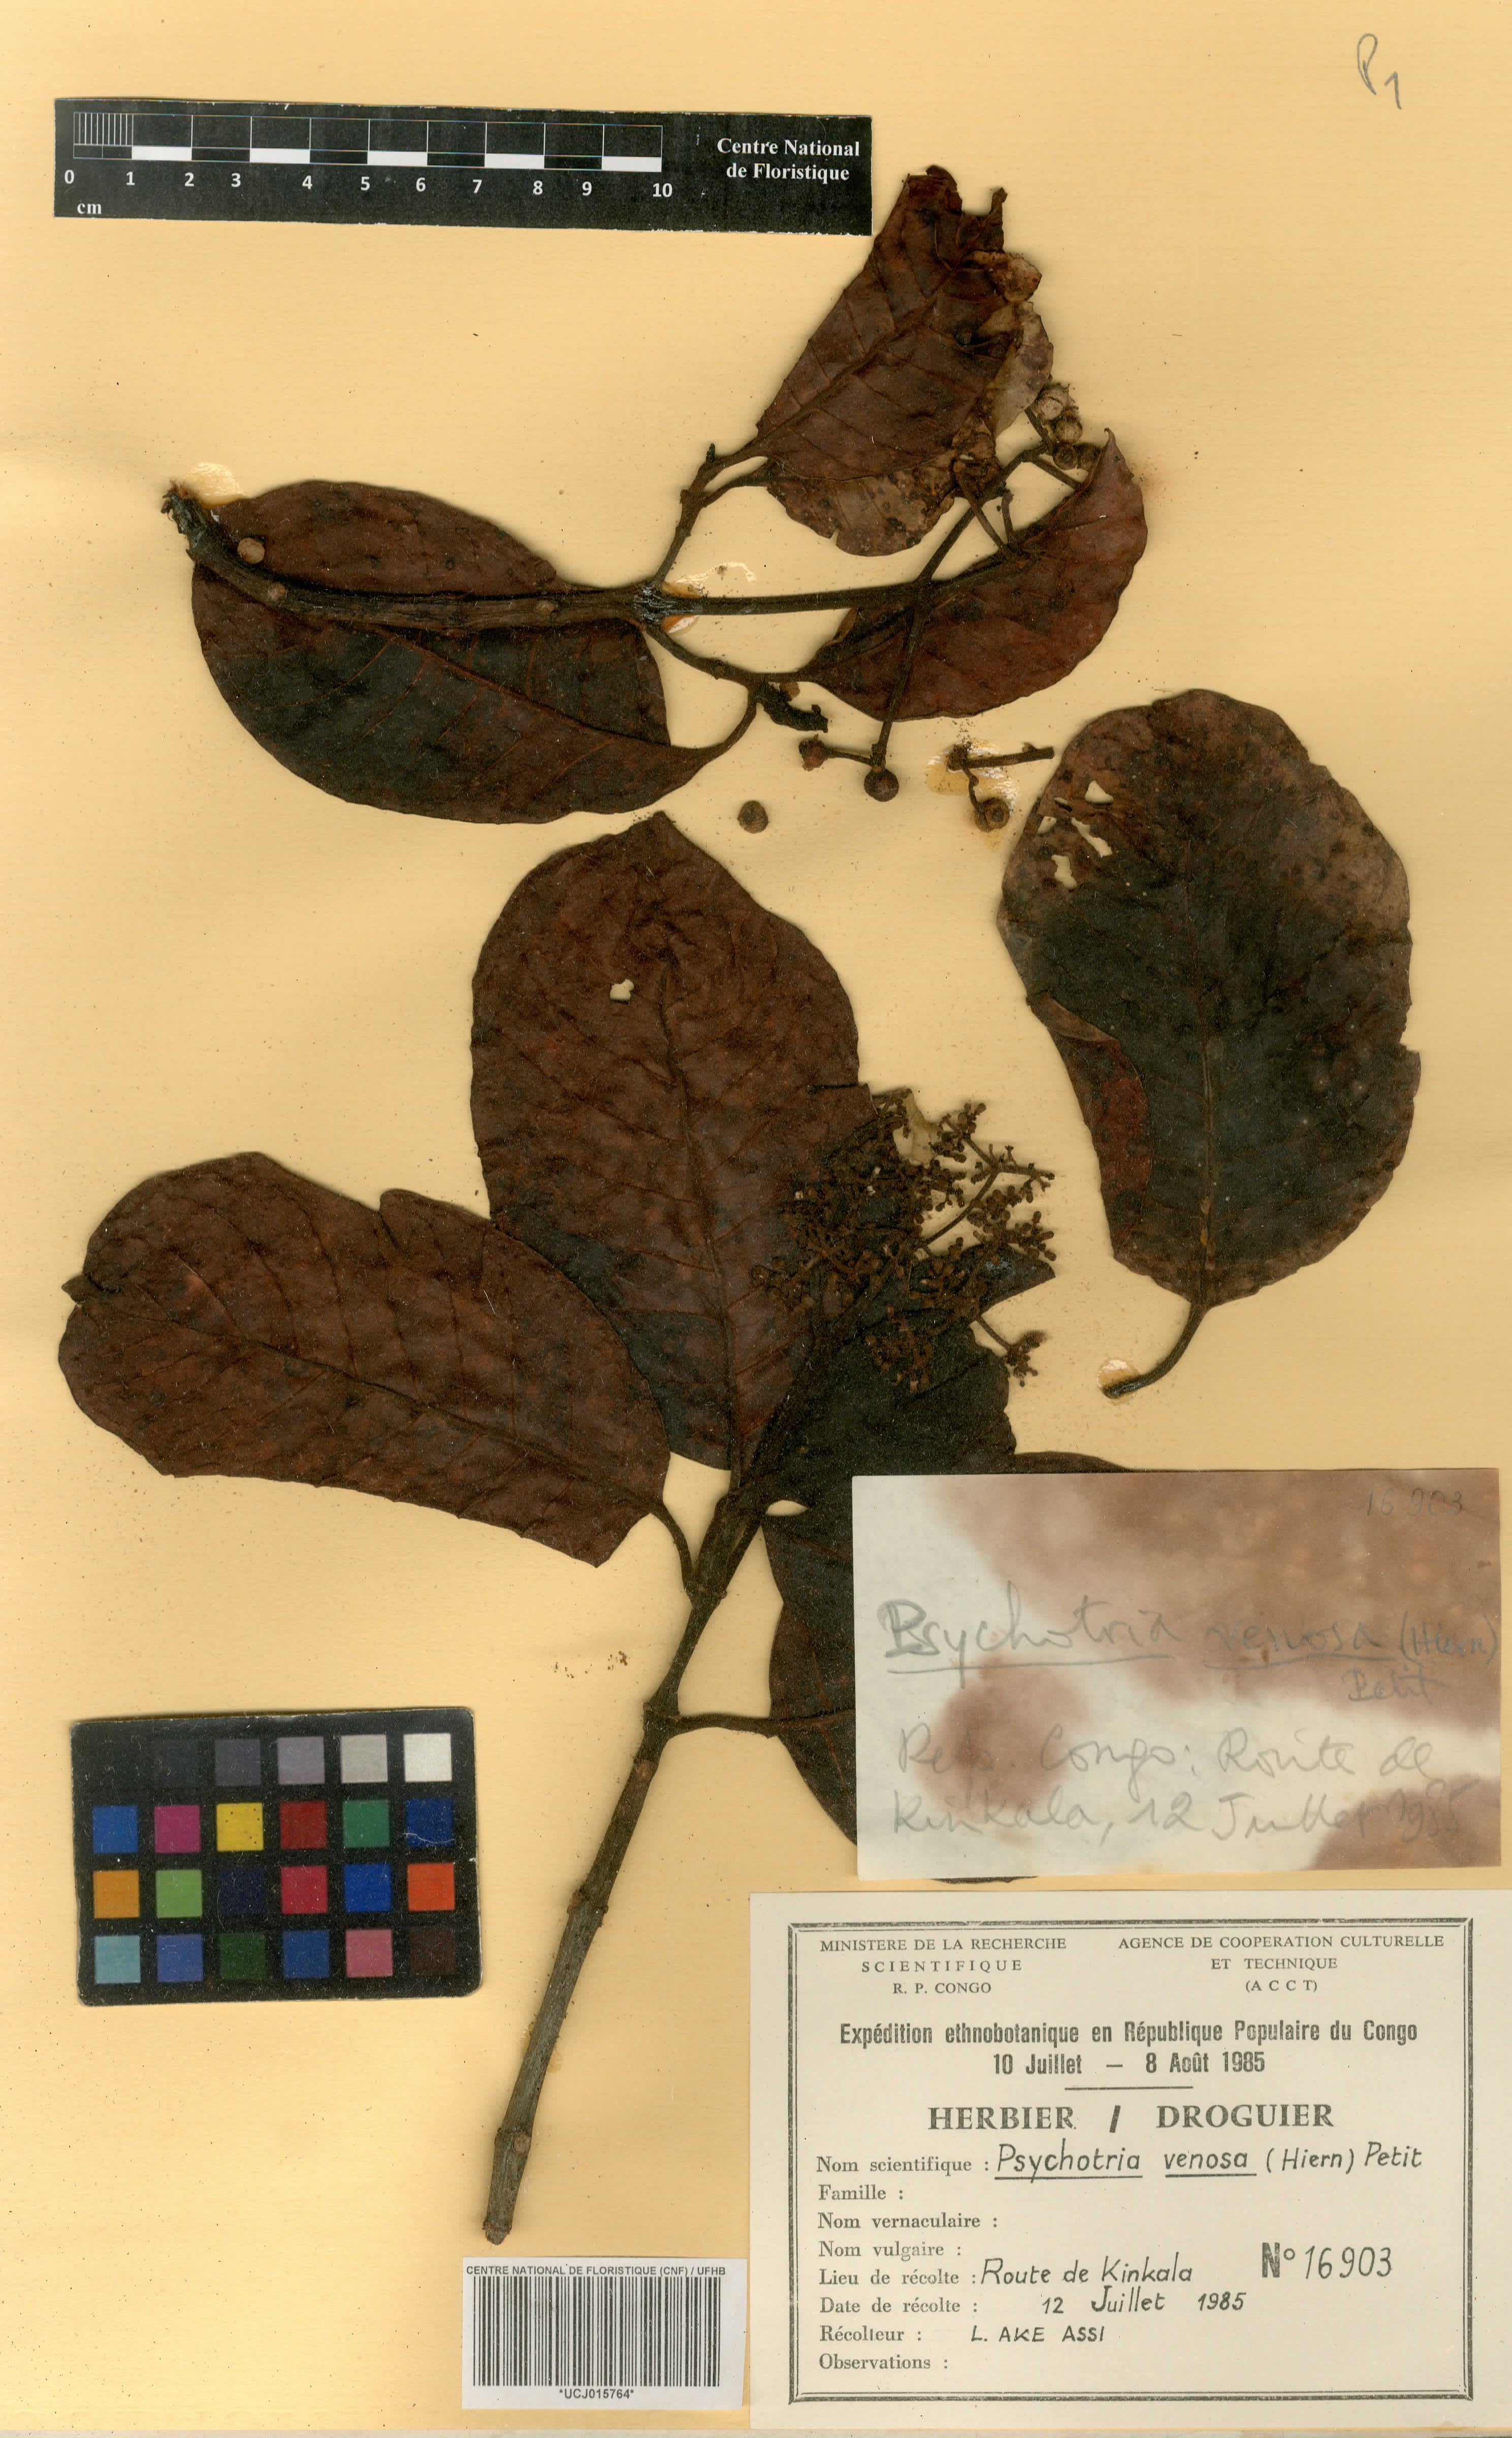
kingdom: Plantae
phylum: Tracheophyta
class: Magnoliopsida
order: Gentianales
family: Rubiaceae
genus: Psychotria
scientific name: Psychotria venosa
